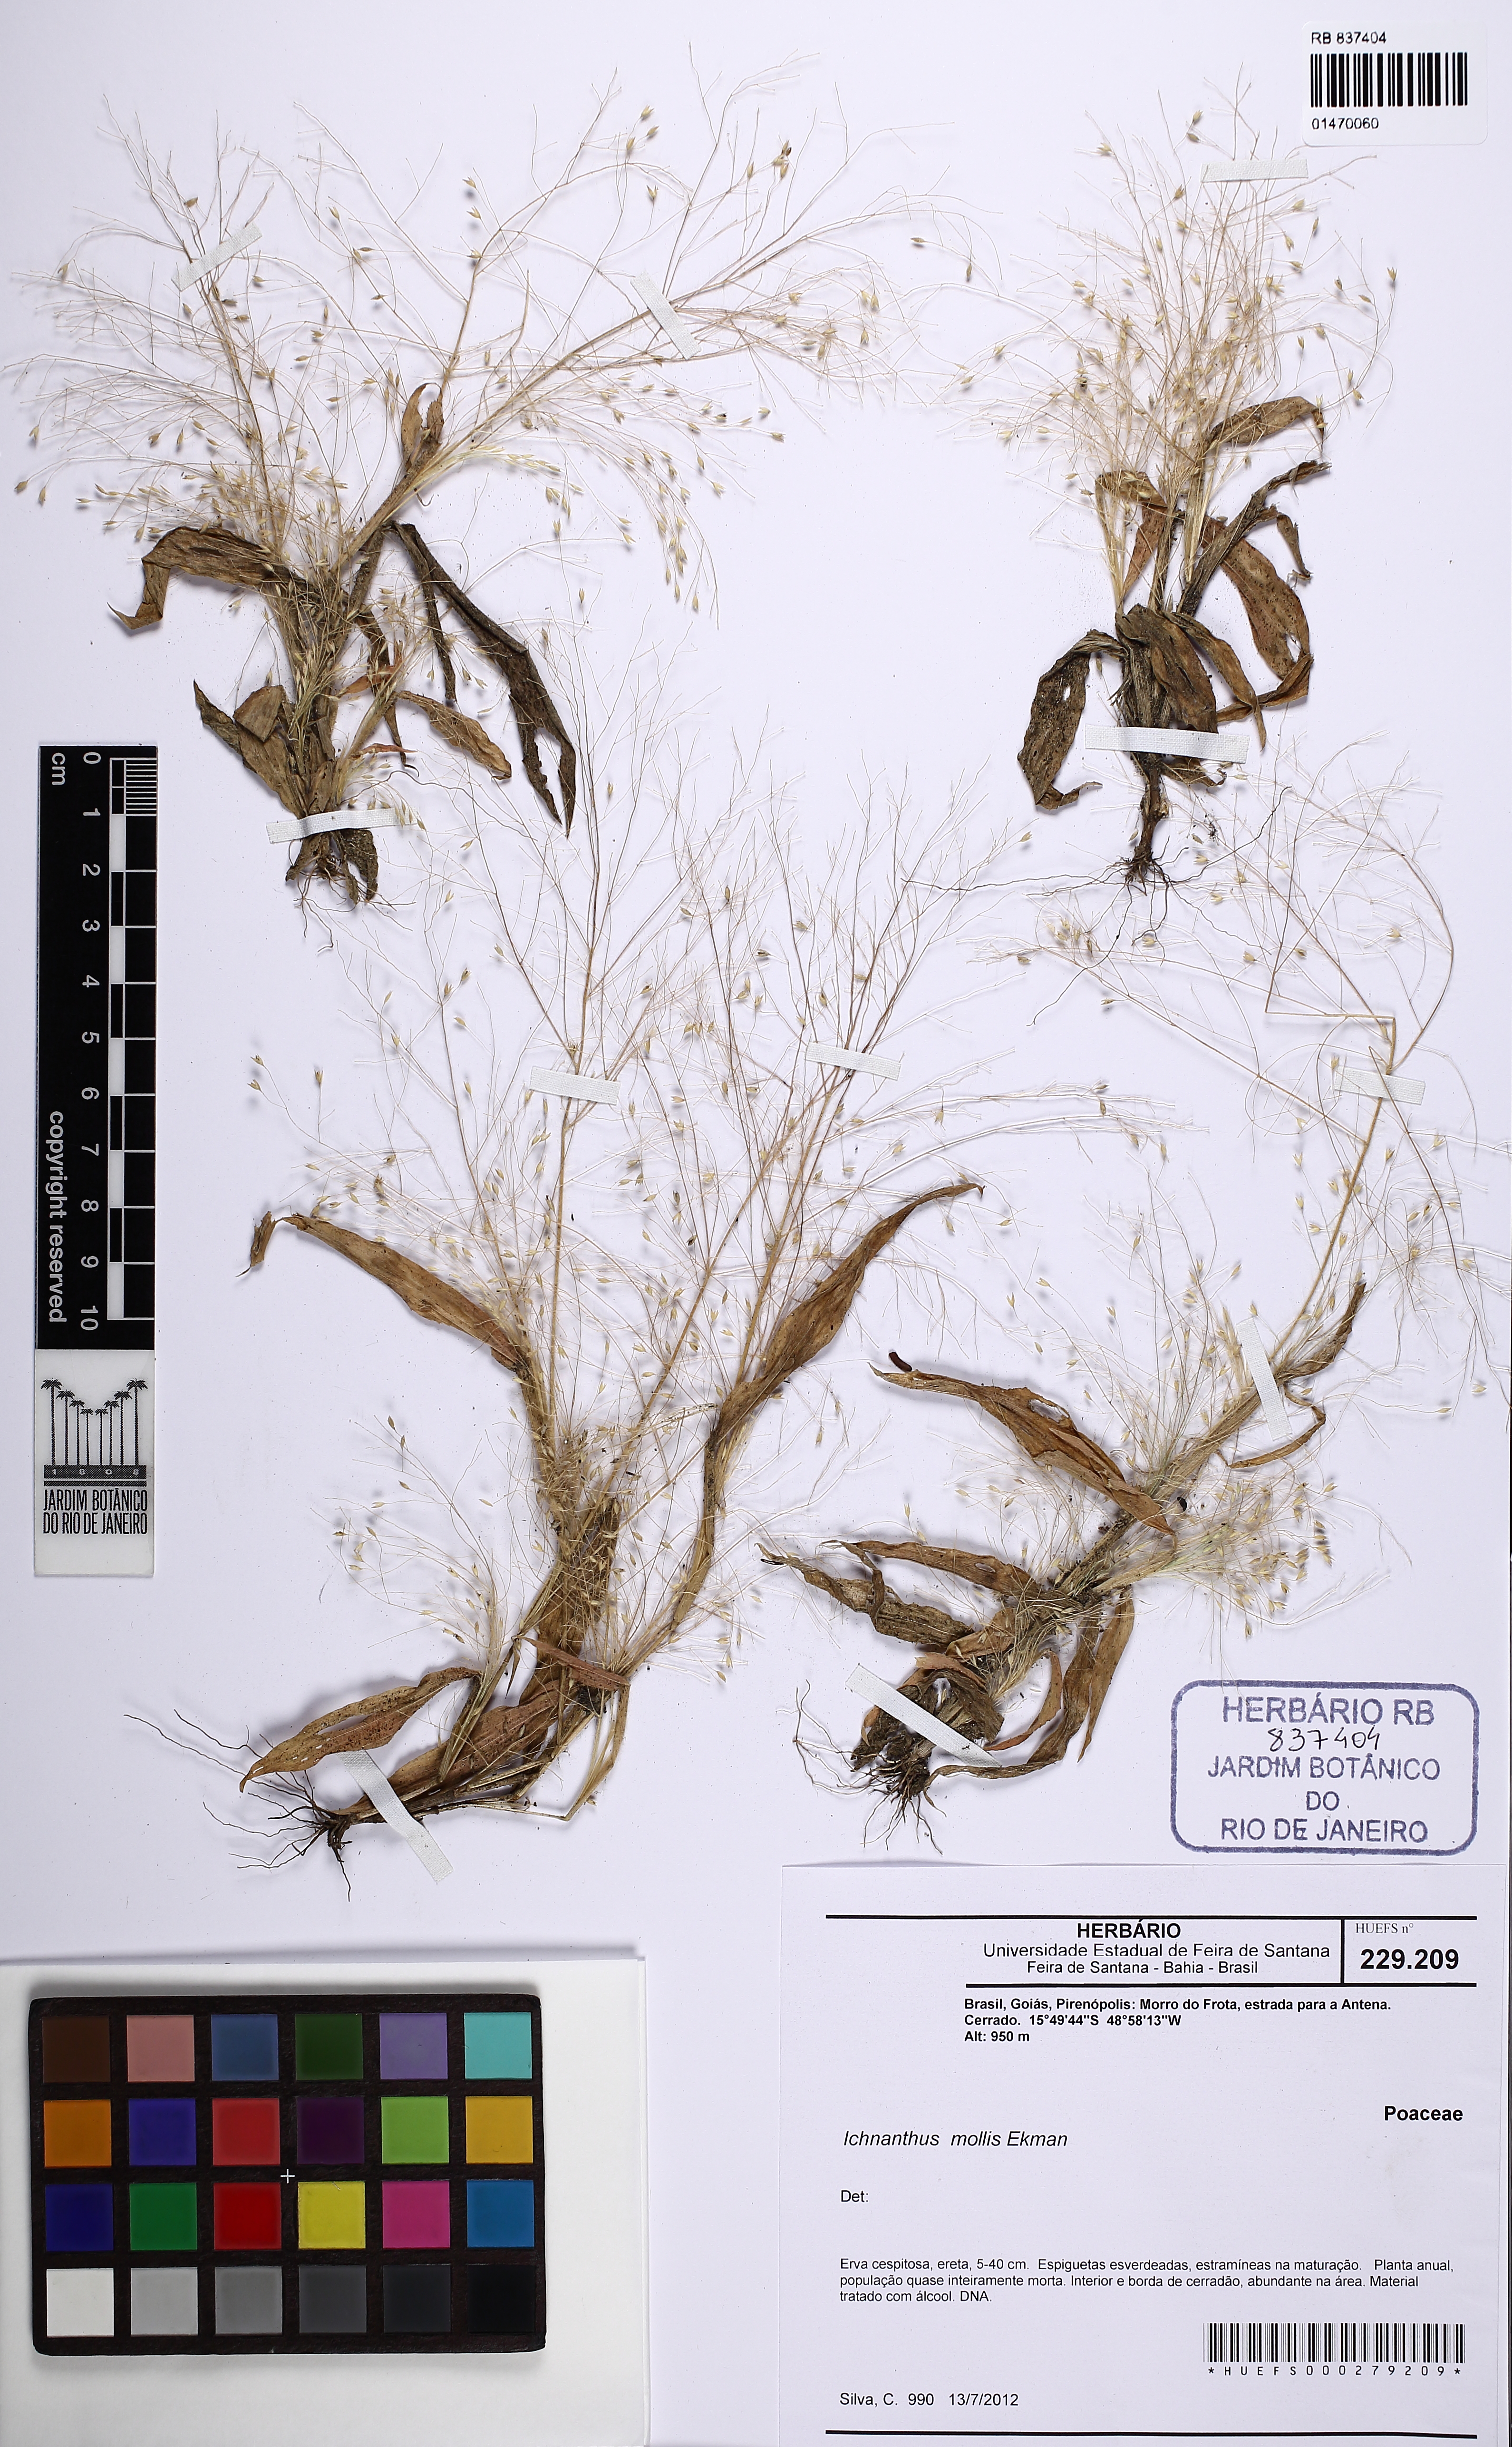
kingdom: Plantae
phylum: Tracheophyta
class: Liliopsida
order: Poales
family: Poaceae
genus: Ichnanthus
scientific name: Ichnanthus mollis
